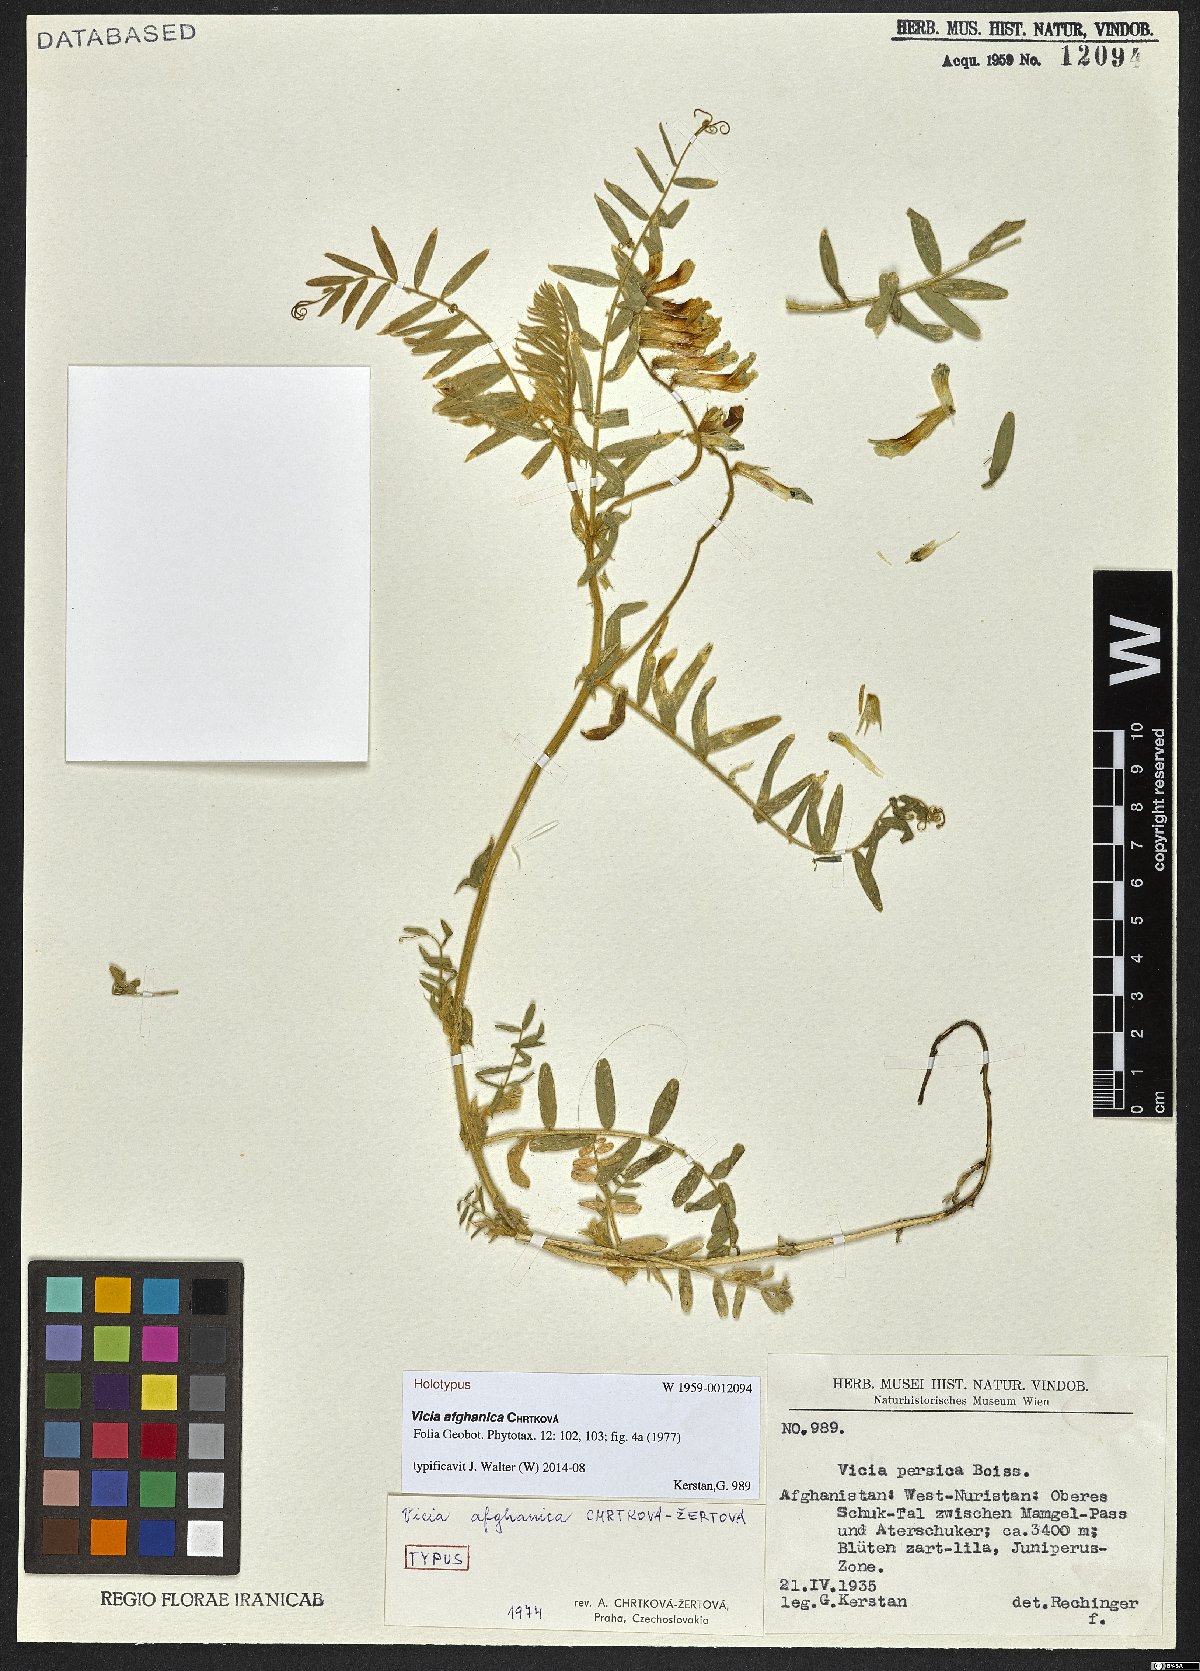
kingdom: Plantae
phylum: Tracheophyta
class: Magnoliopsida
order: Fabales
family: Fabaceae
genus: Vicia
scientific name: Vicia afghanica
